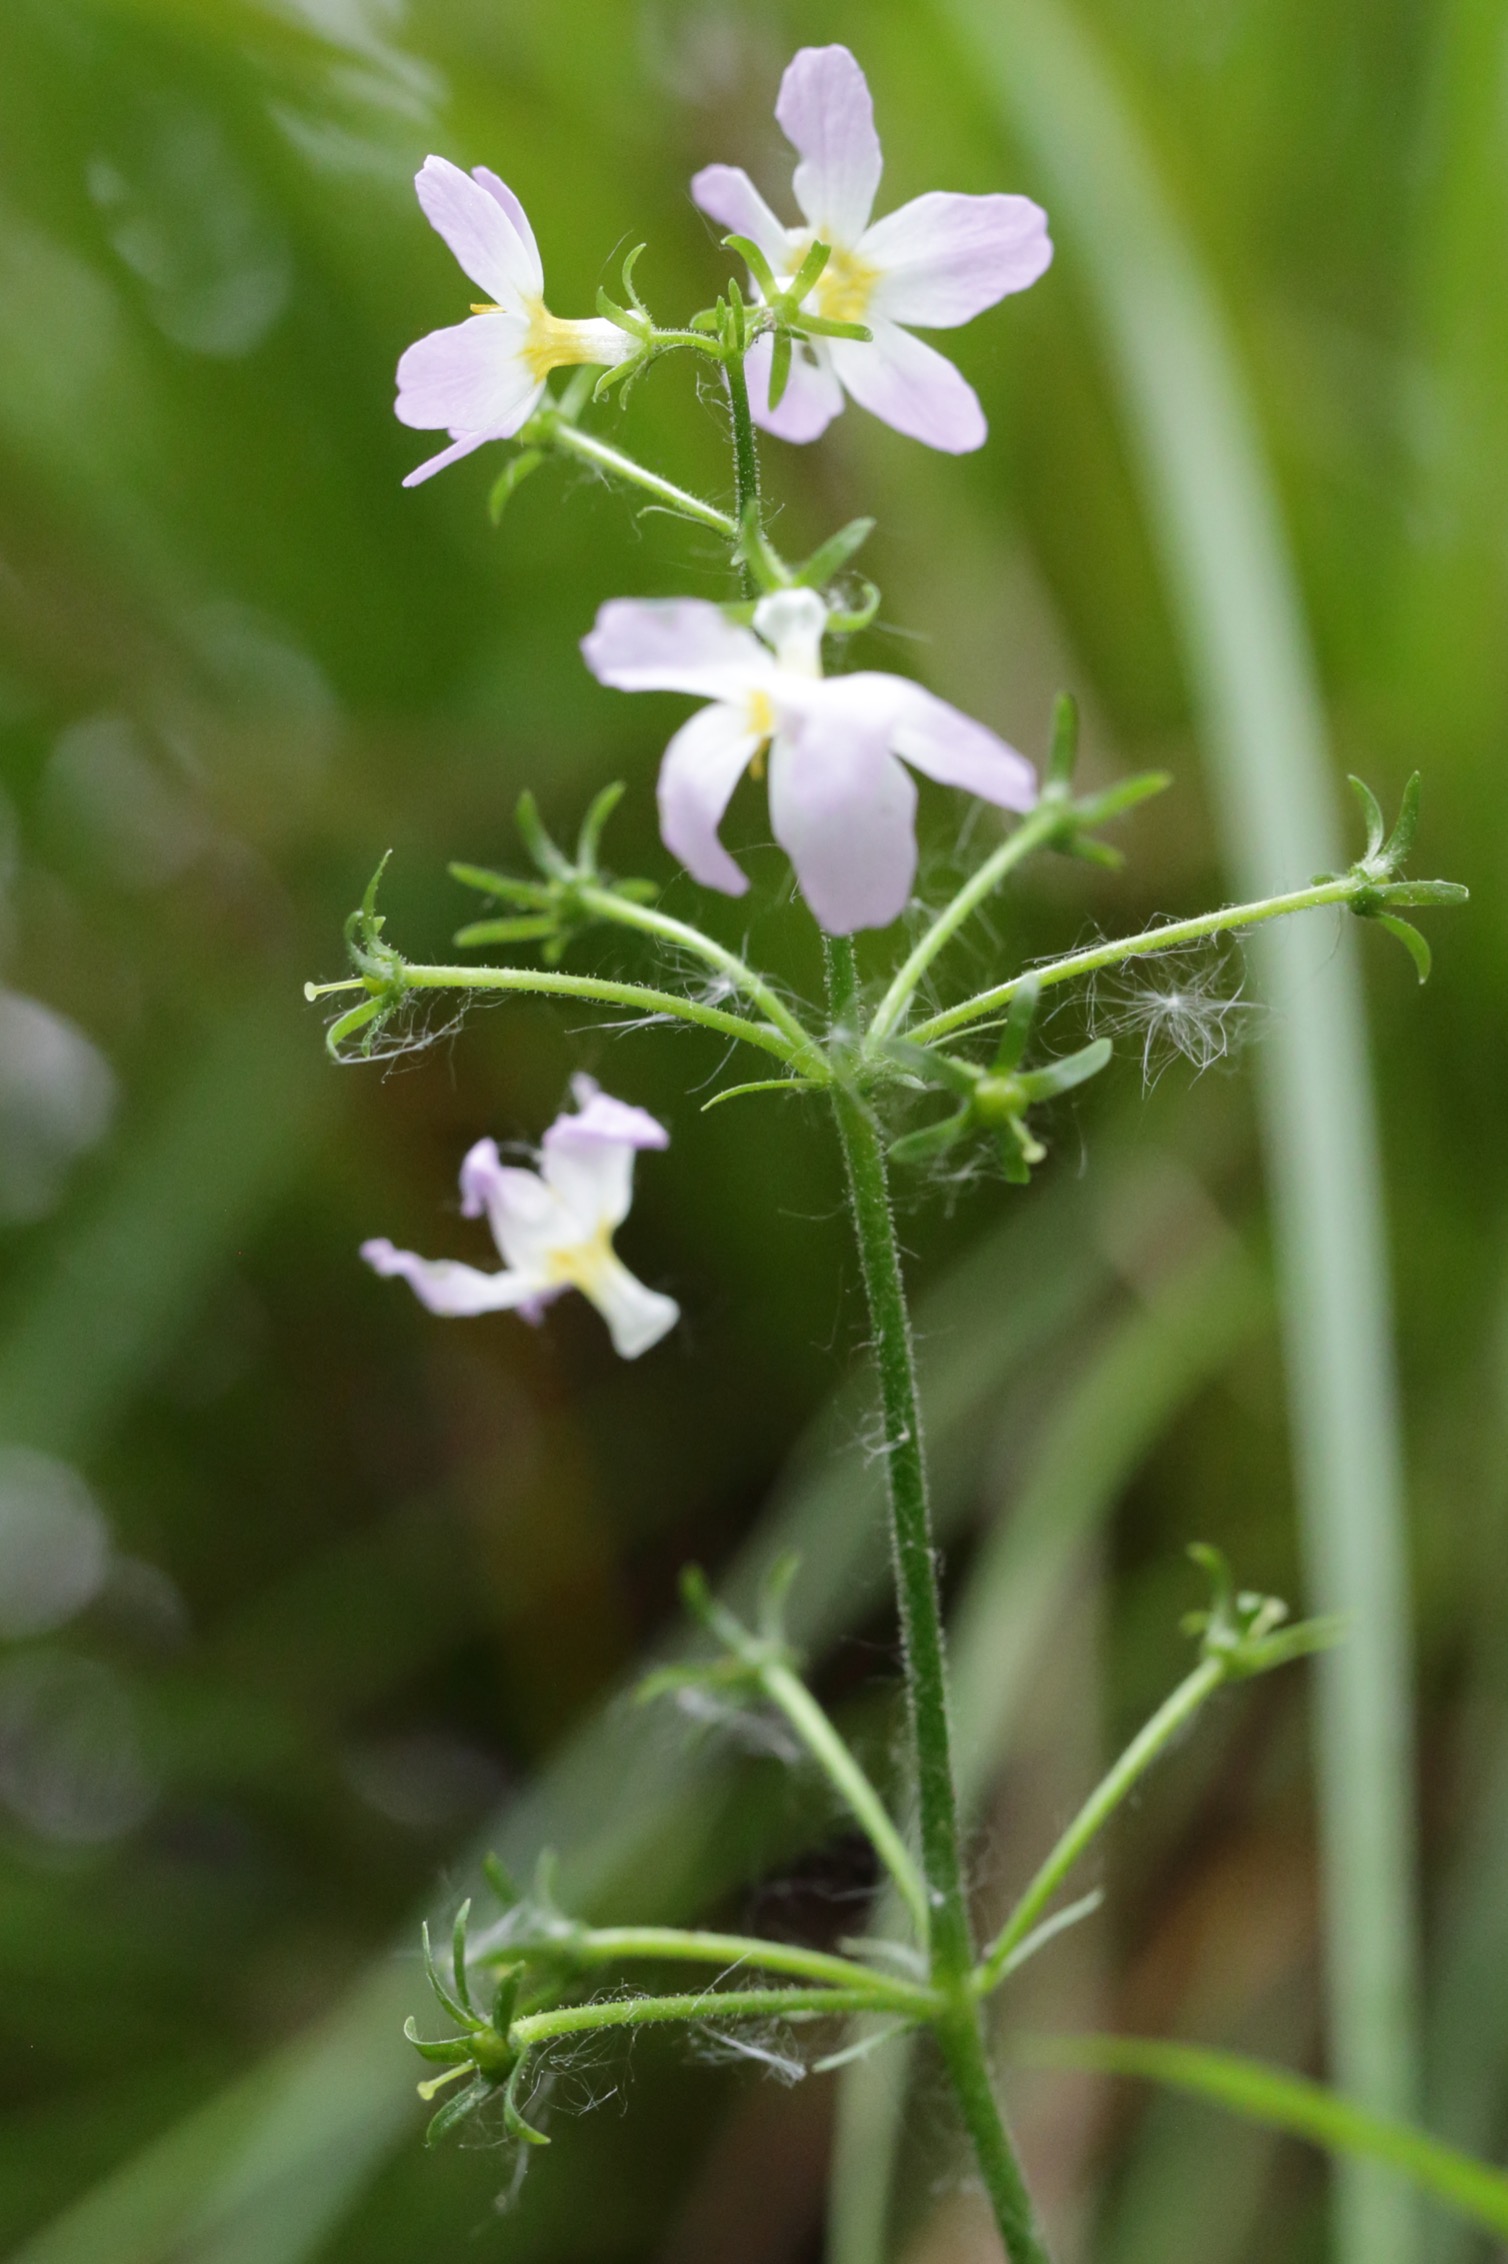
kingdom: Plantae
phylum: Tracheophyta
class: Magnoliopsida
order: Ericales
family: Primulaceae
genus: Hottonia
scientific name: Hottonia palustris
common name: Vandrøllike
